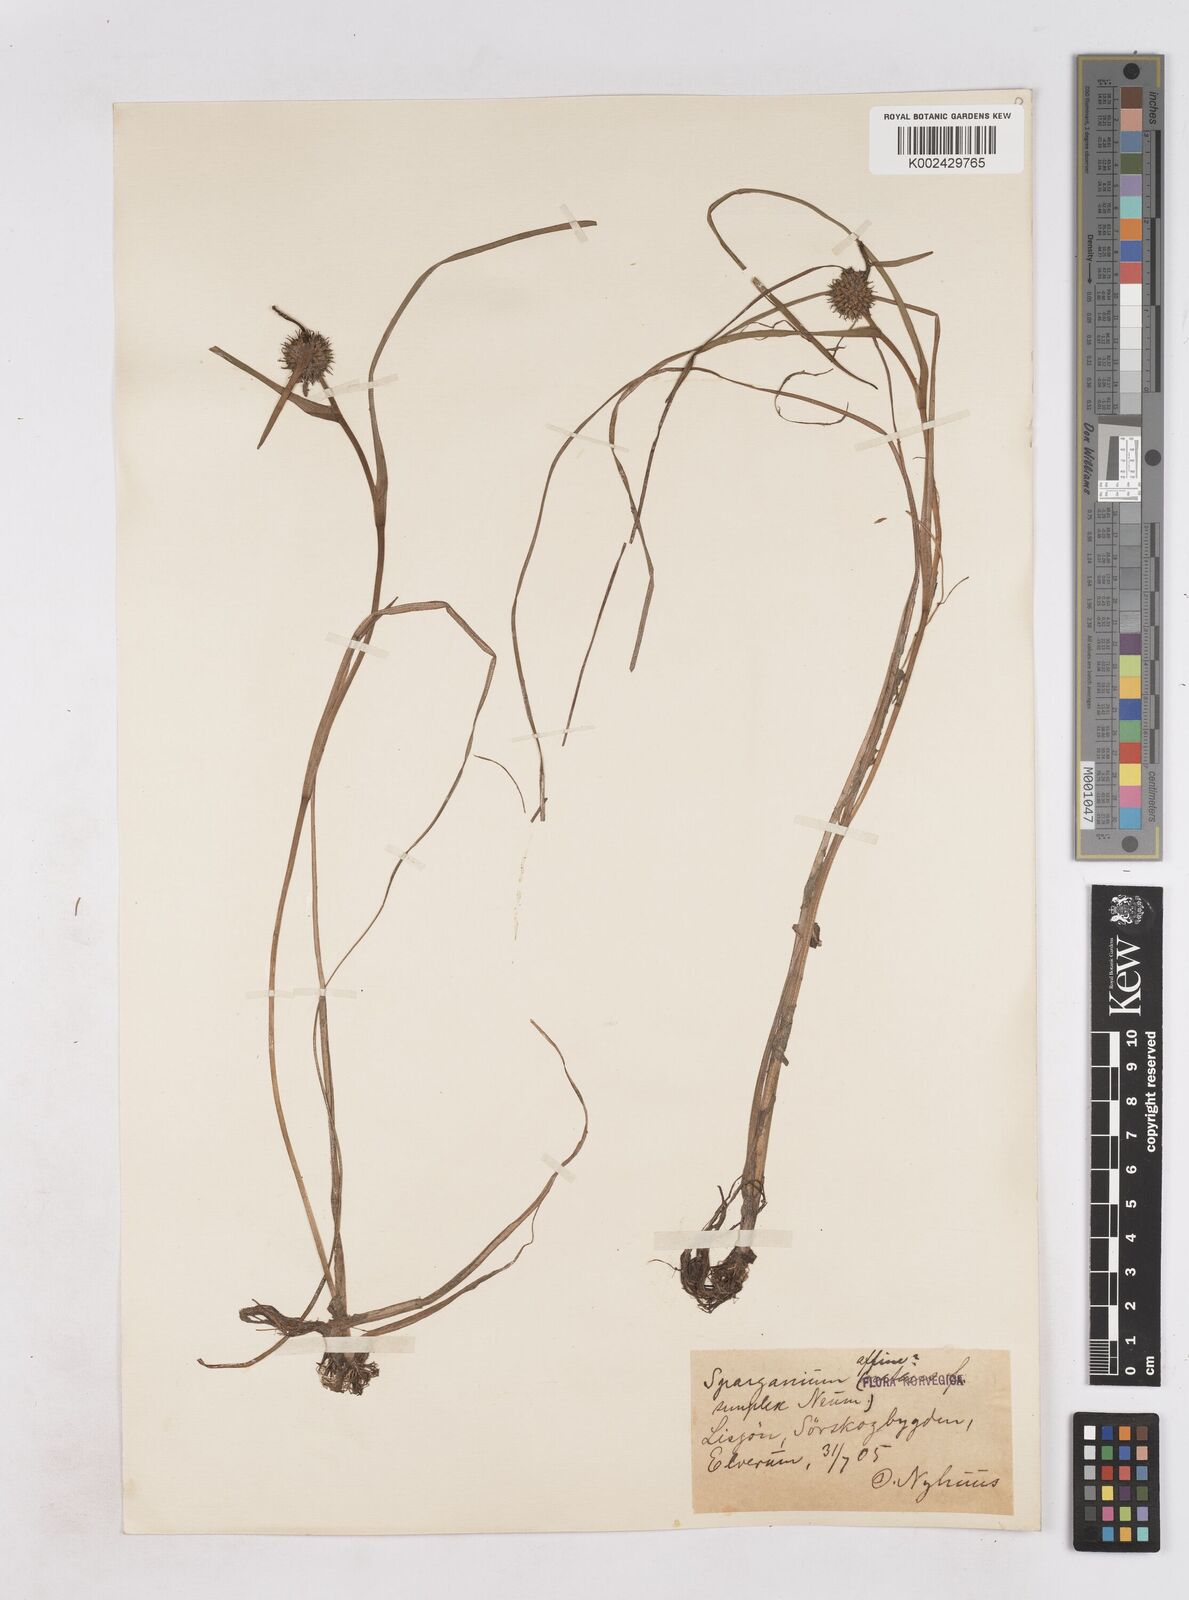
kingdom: Plantae
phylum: Tracheophyta
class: Liliopsida
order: Poales
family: Typhaceae
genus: Sparganium
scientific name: Sparganium angustifolium
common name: Floating bur-reed
